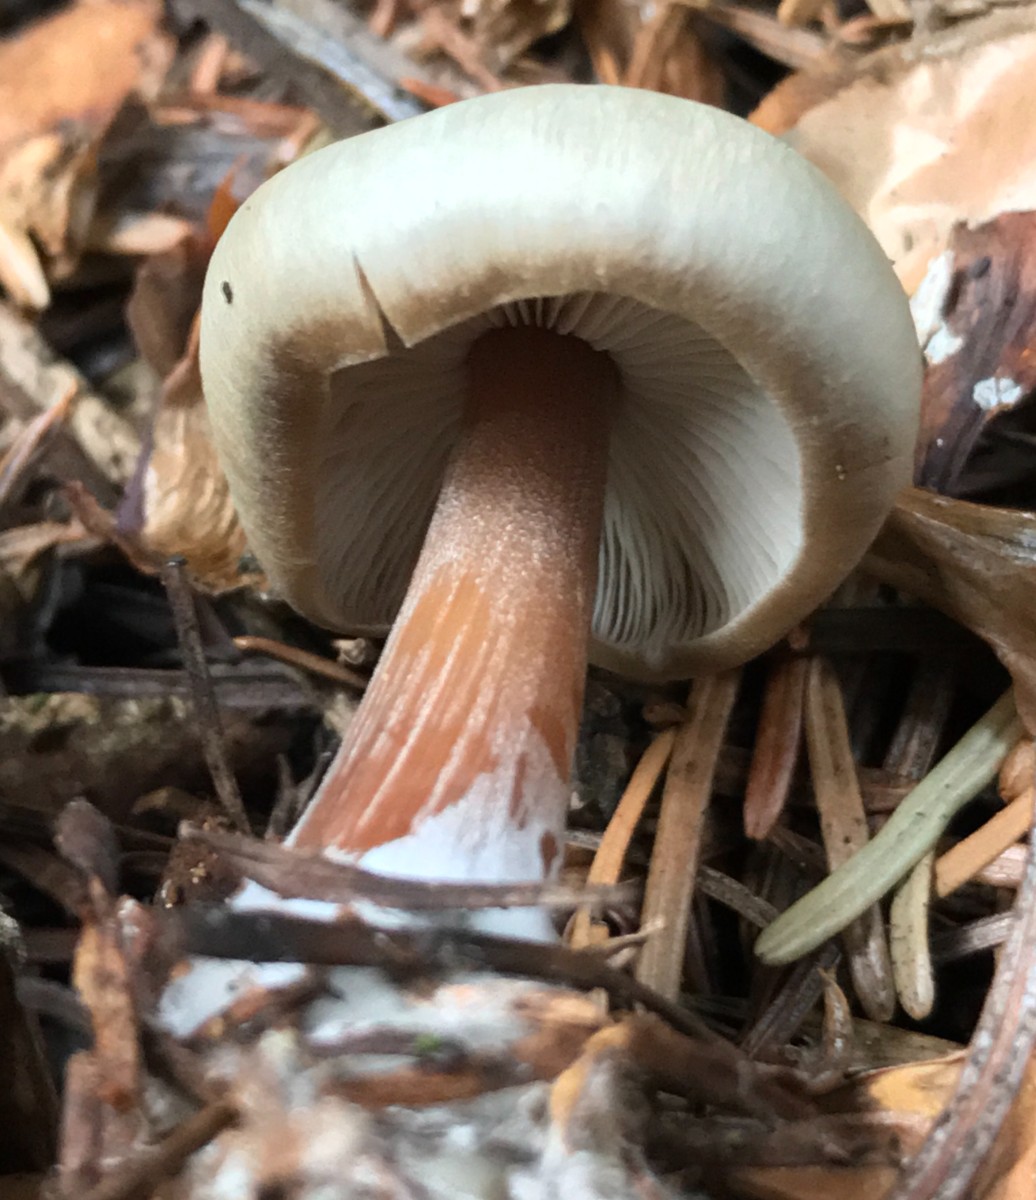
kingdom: Fungi
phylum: Basidiomycota
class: Agaricomycetes
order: Agaricales
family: Omphalotaceae
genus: Rhodocollybia
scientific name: Rhodocollybia asema
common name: horngrå fladhat
